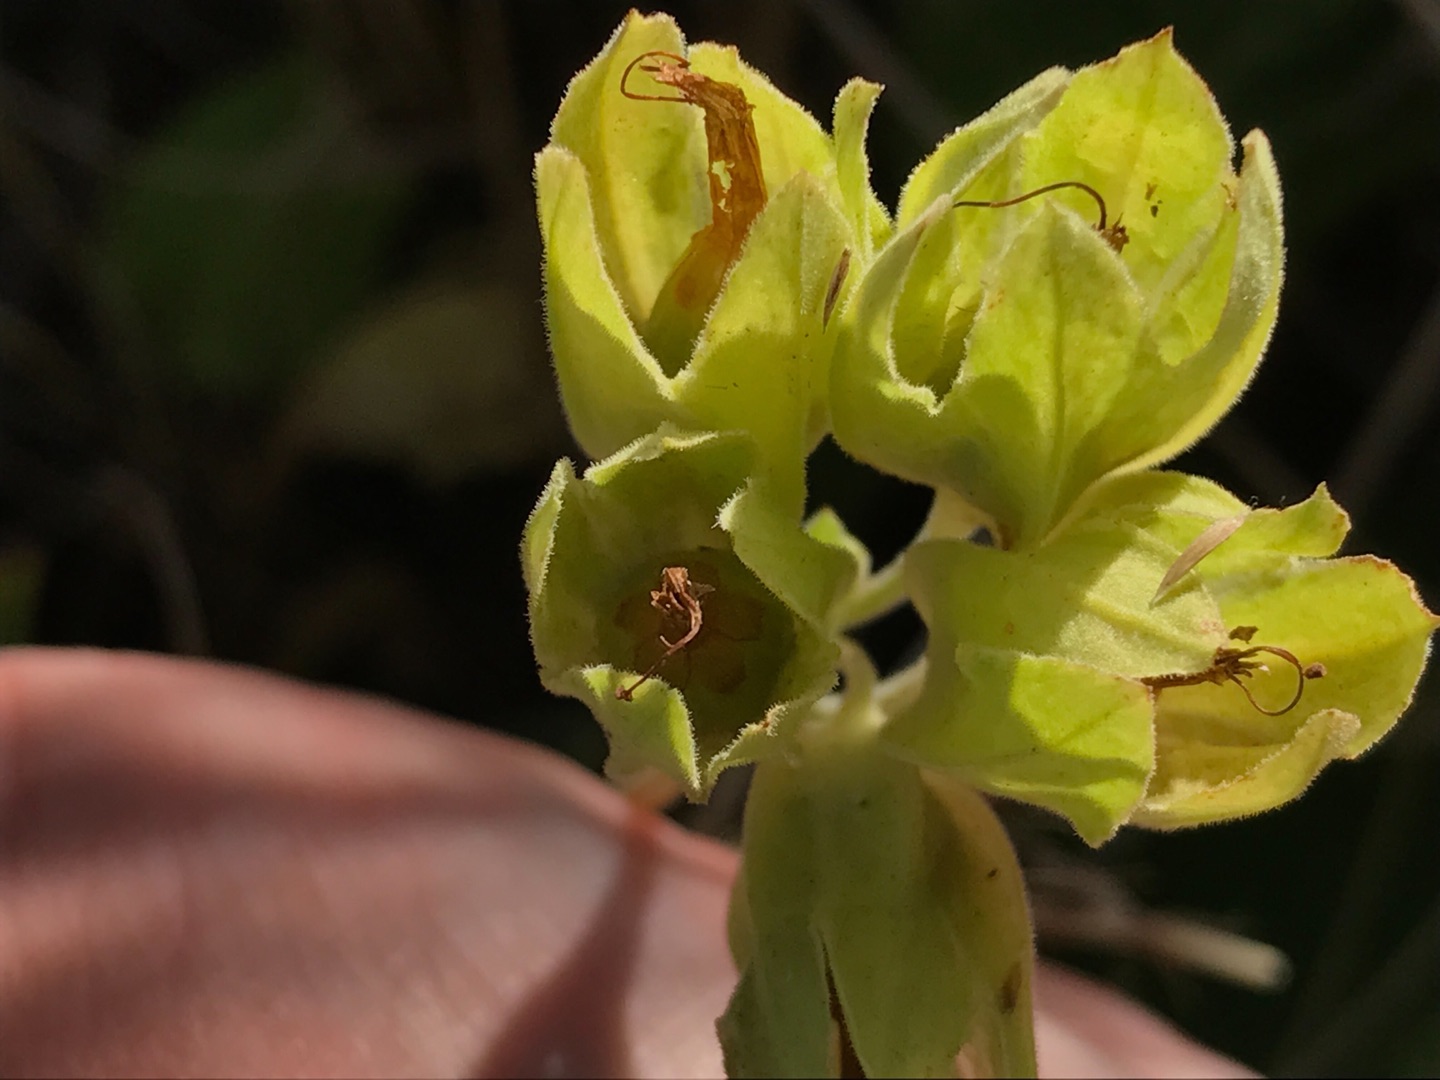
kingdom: Plantae
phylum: Tracheophyta
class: Magnoliopsida
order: Ericales
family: Primulaceae
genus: Primula
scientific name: Primula veris
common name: Hulkravet kodriver
